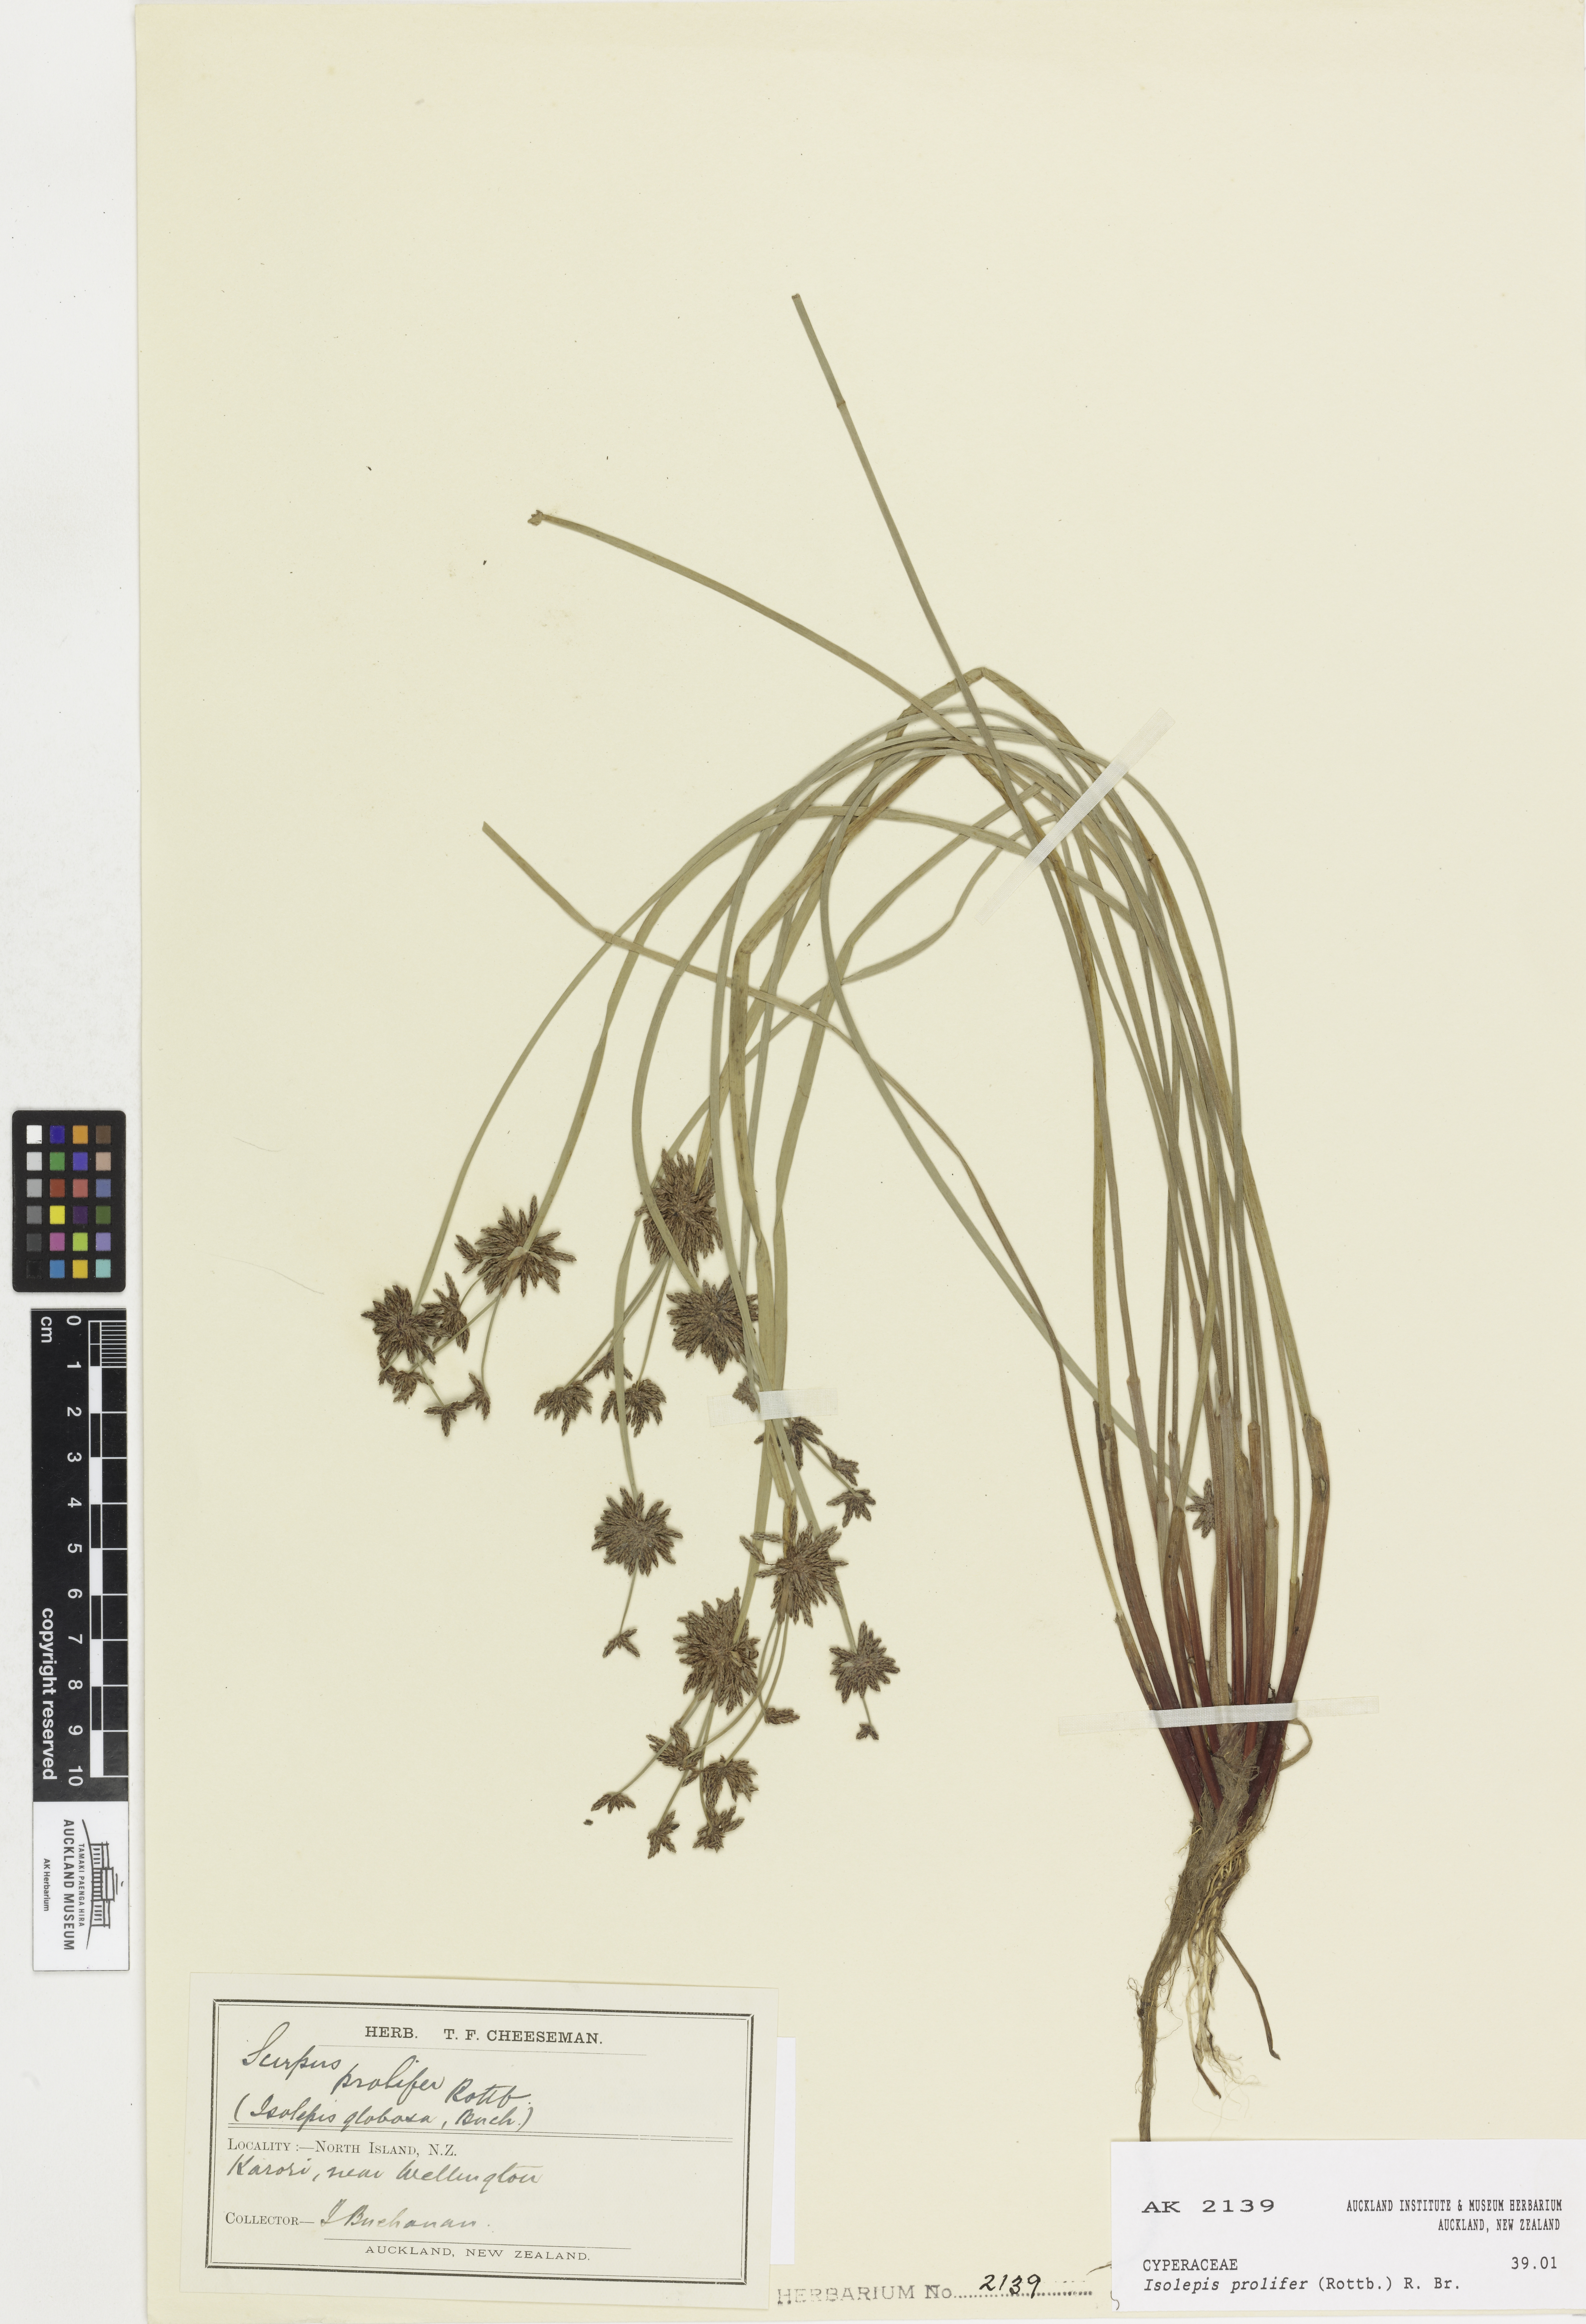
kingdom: Plantae
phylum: Tracheophyta
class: Liliopsida
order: Poales
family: Cyperaceae
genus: Isolepis
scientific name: Isolepis prolifera
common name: Proliferating bulrush
